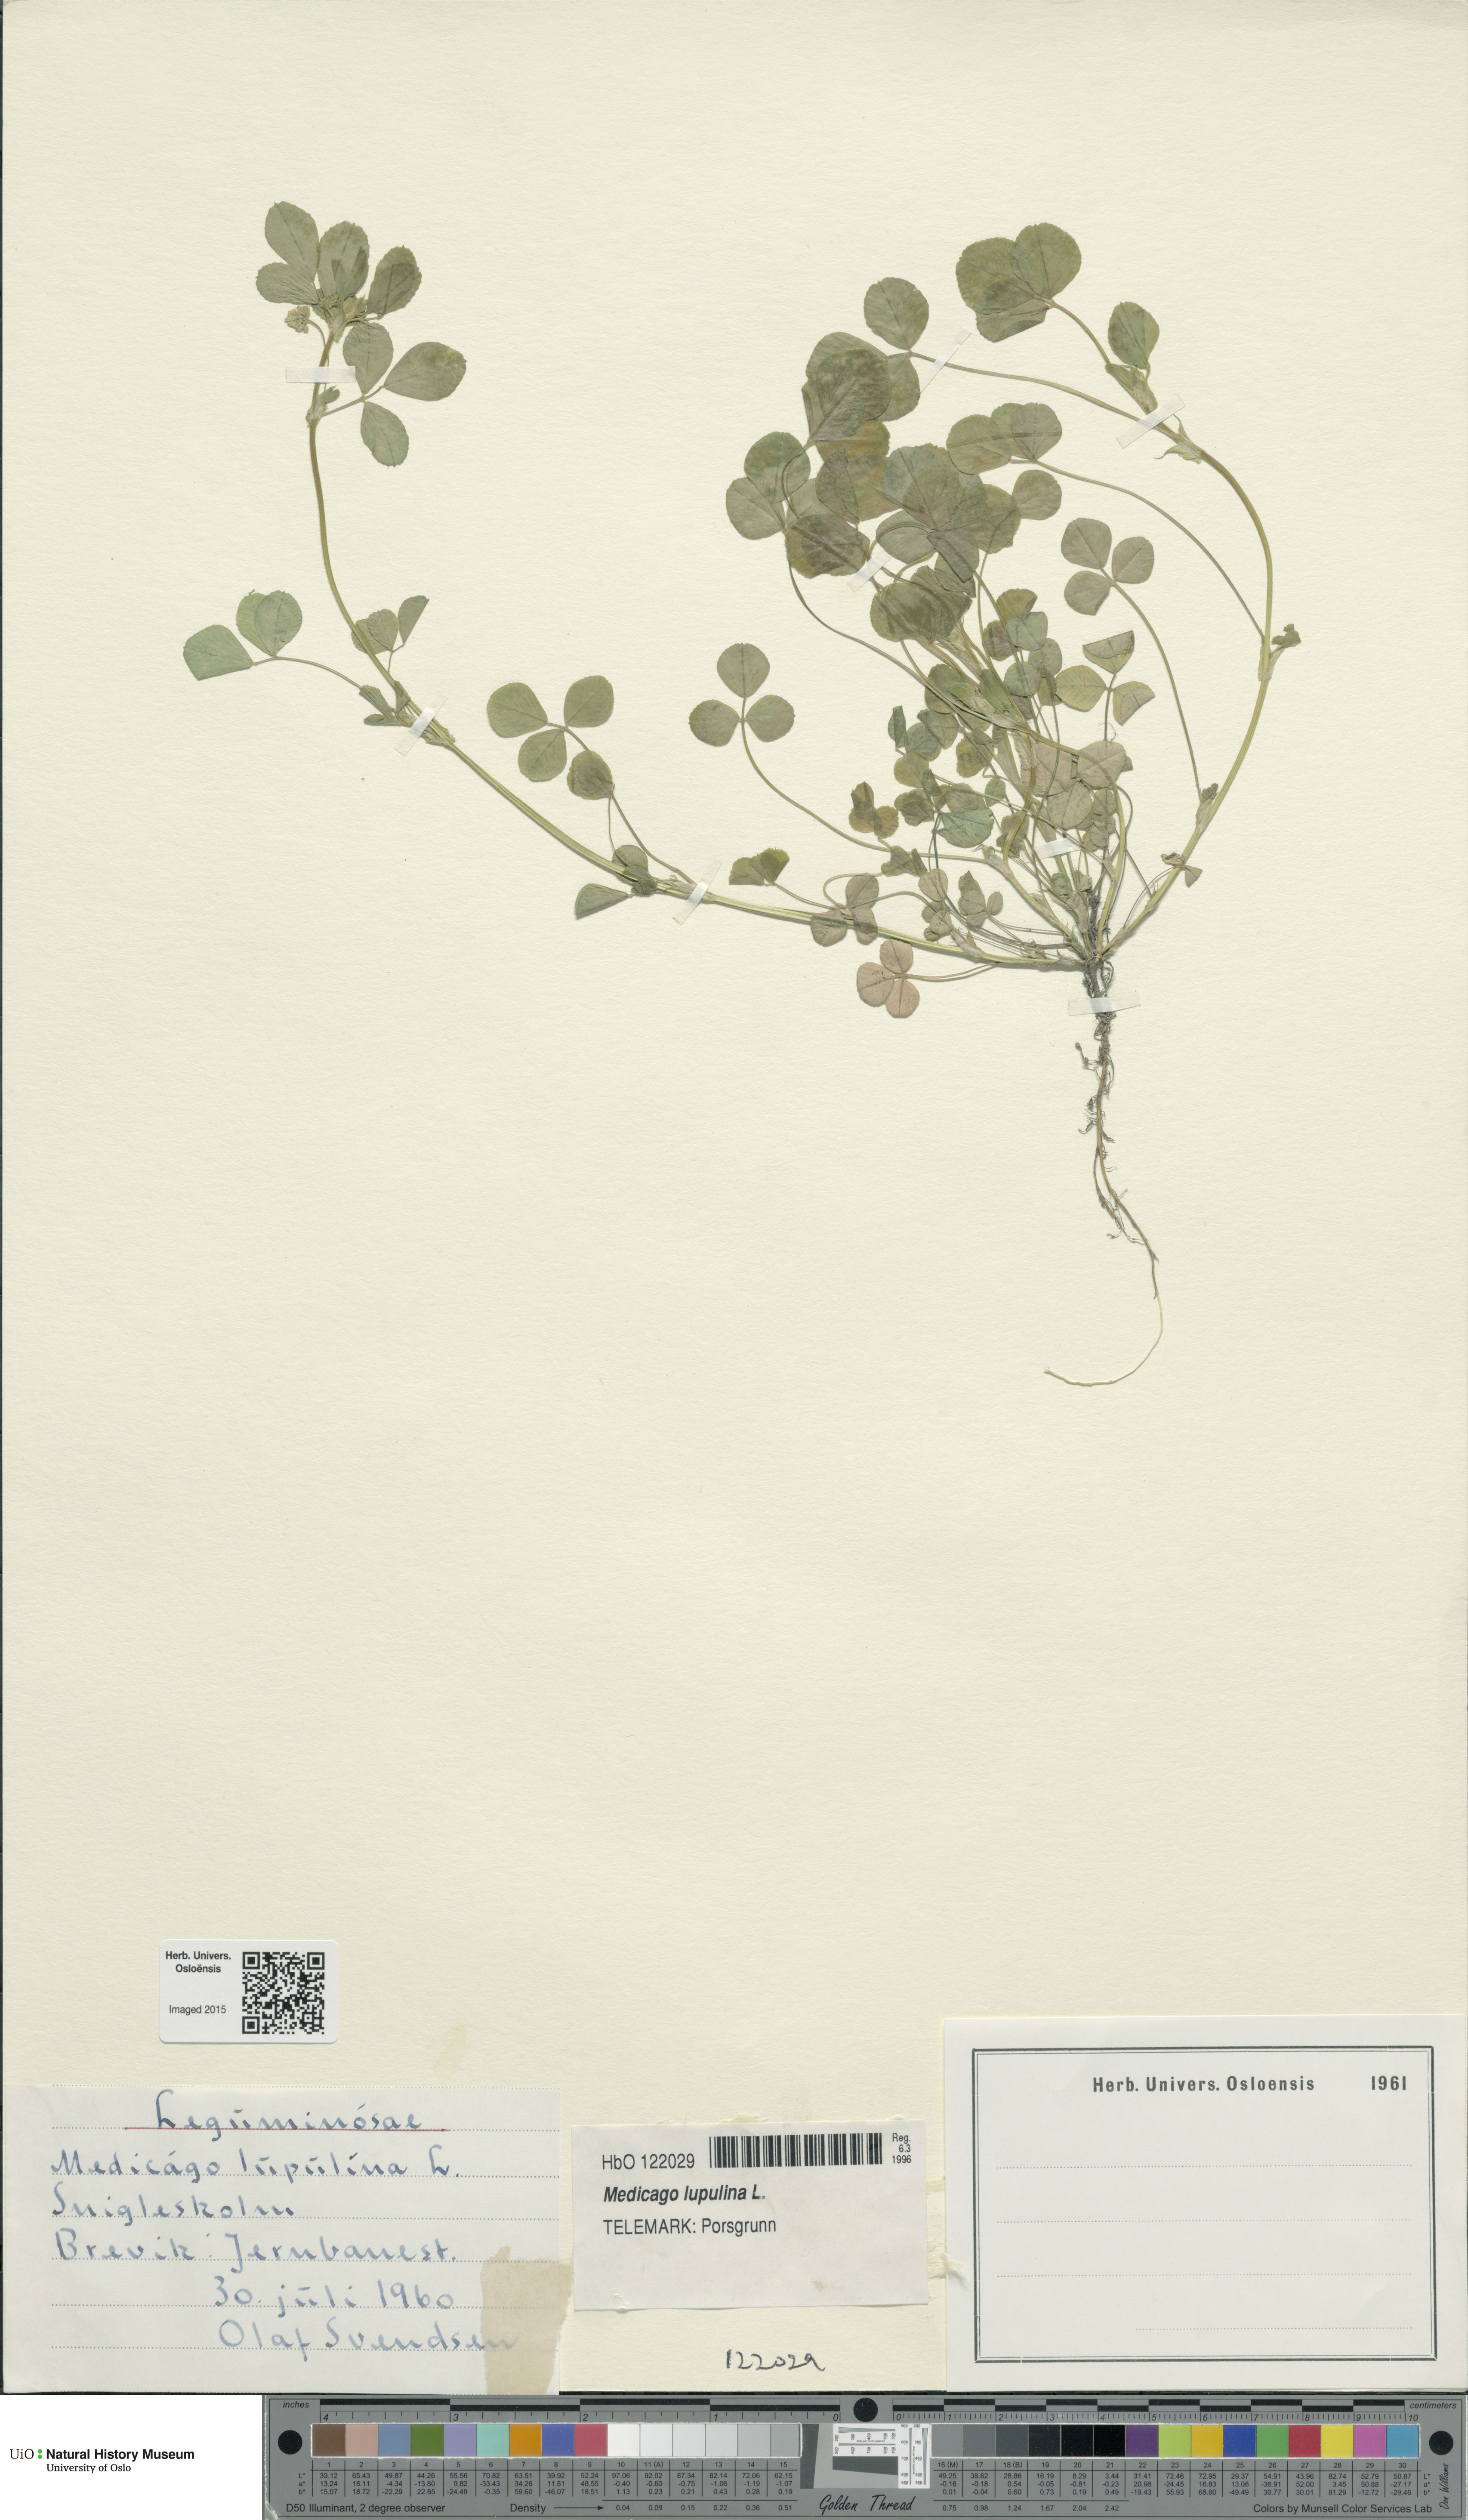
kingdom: Plantae
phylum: Tracheophyta
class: Magnoliopsida
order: Fabales
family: Fabaceae
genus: Medicago
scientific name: Medicago lupulina
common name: Black medick
